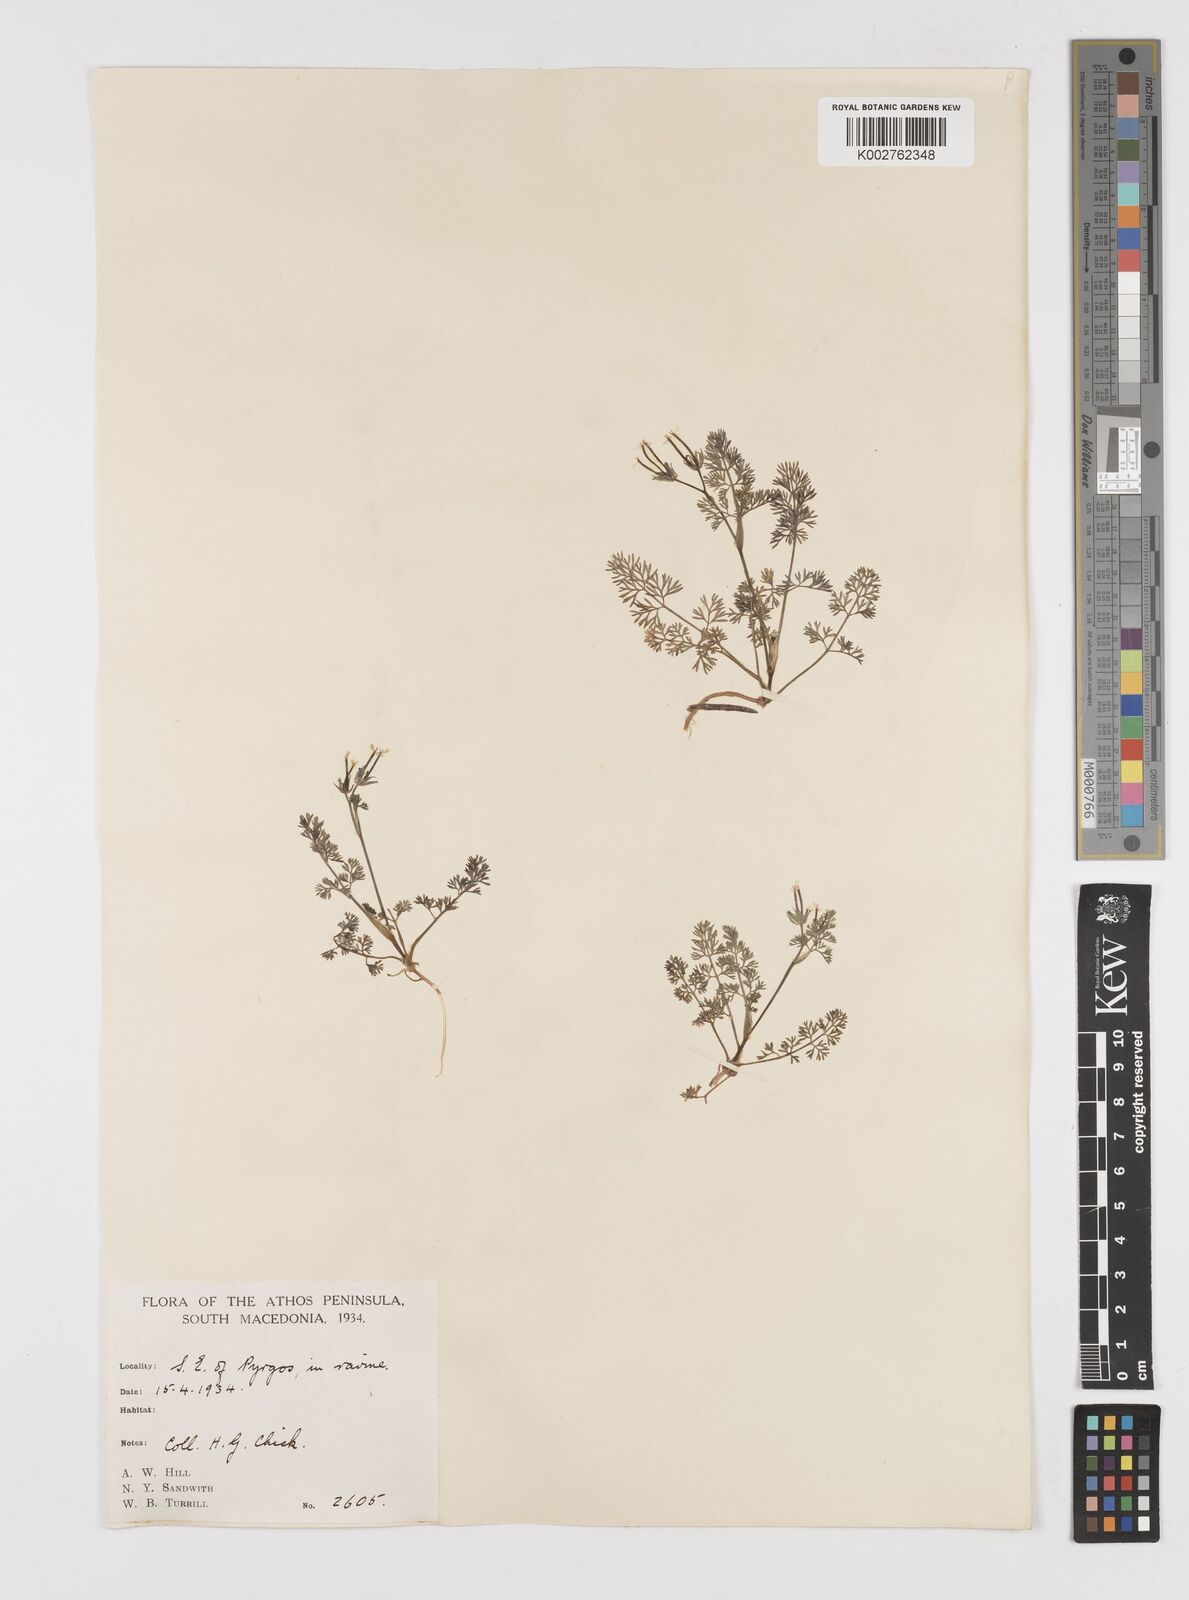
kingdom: Plantae
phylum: Tracheophyta
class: Magnoliopsida
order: Apiales
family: Apiaceae
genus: Scandix
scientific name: Scandix pecten-veneris
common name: Shepherd's-needle
